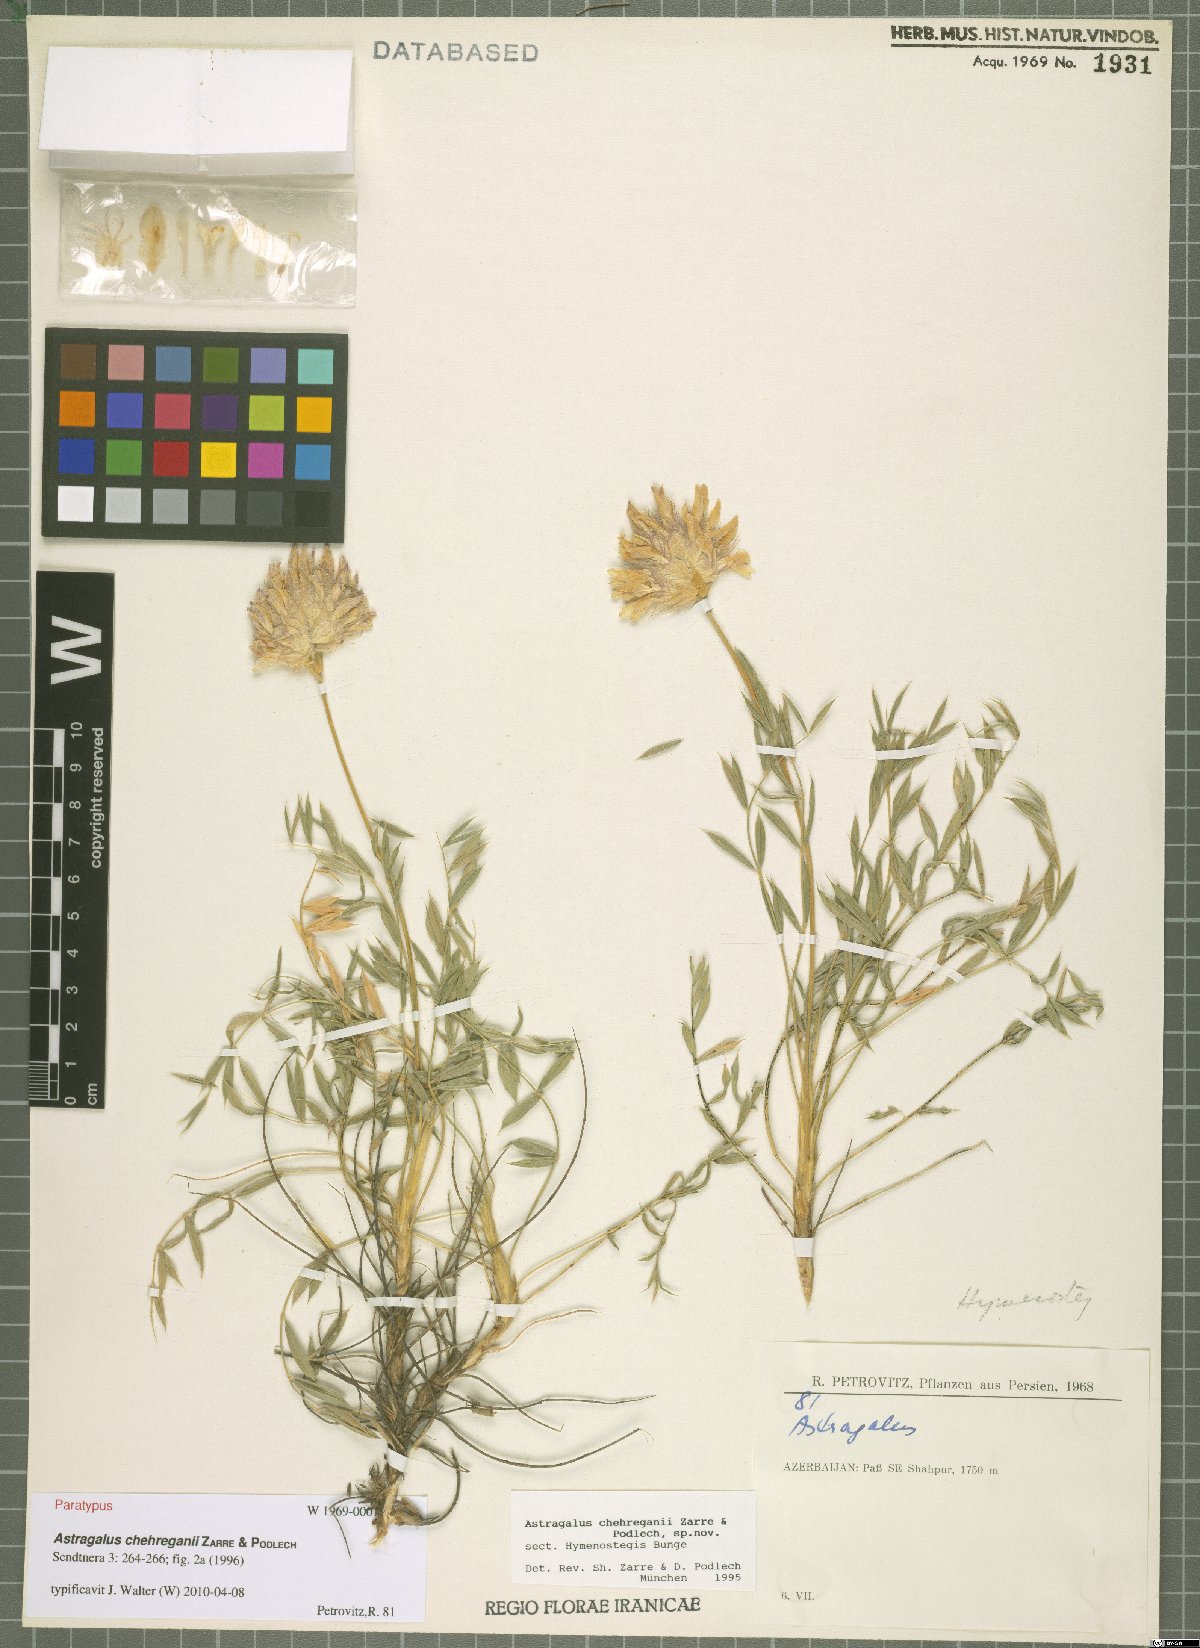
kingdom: Plantae
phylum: Tracheophyta
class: Magnoliopsida
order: Fabales
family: Fabaceae
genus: Astragalus
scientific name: Astragalus chehreganii
